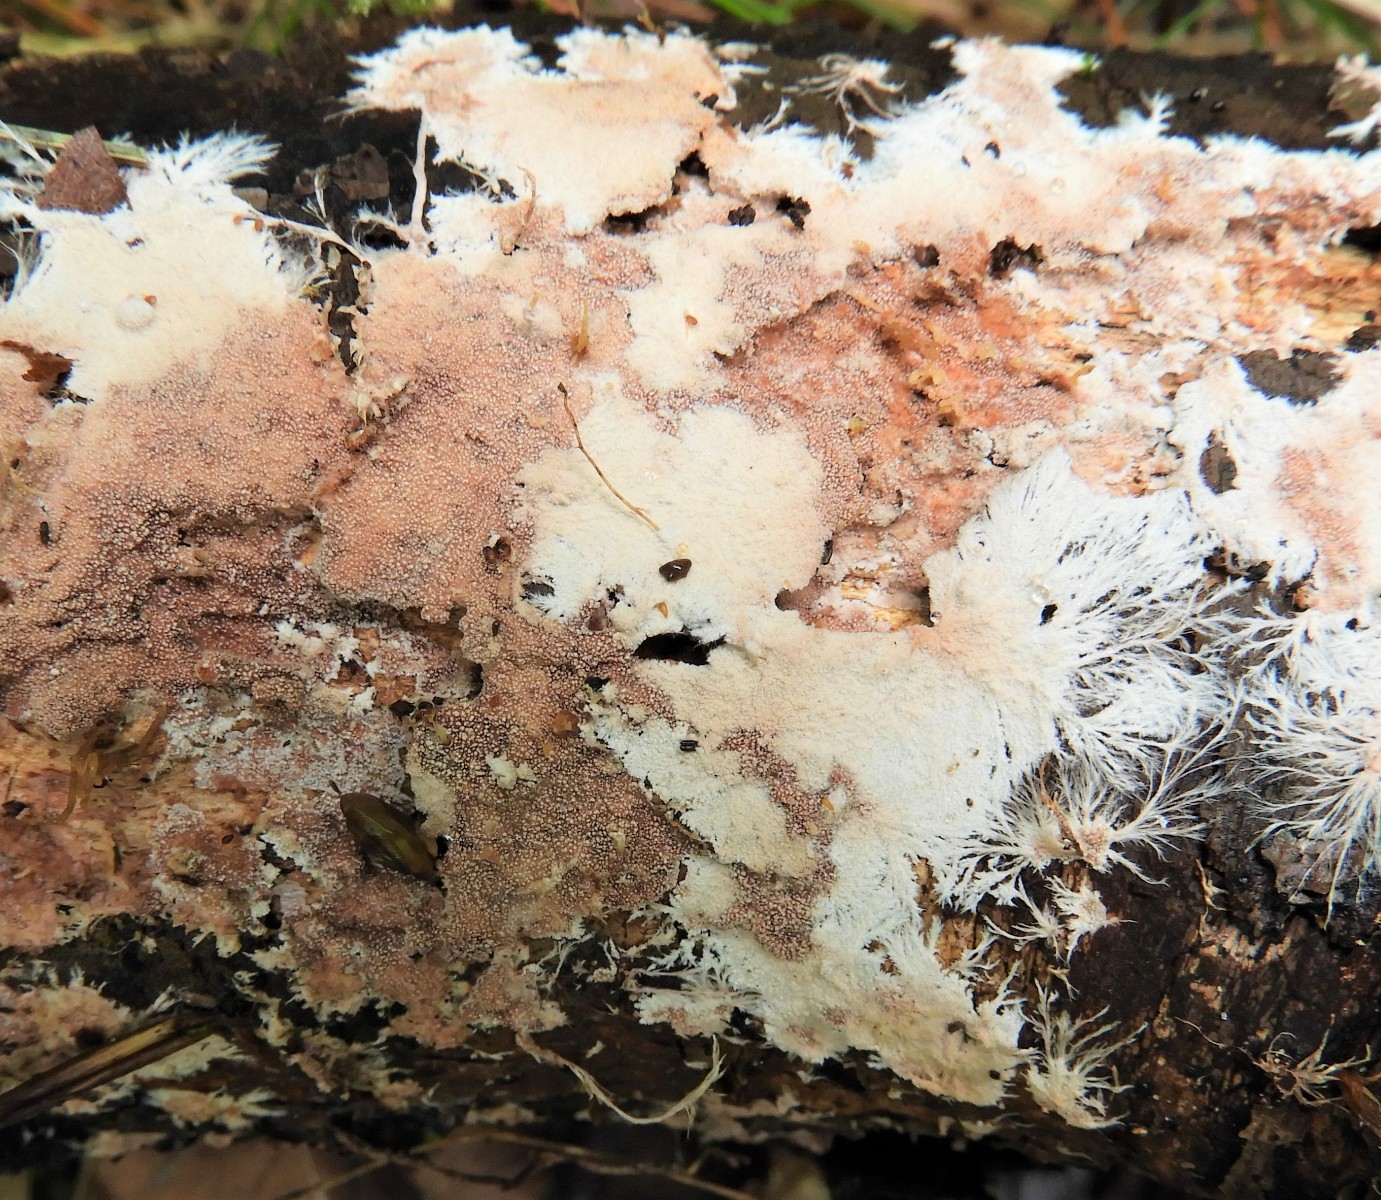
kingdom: Fungi
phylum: Basidiomycota
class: Agaricomycetes
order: Polyporales
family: Steccherinaceae
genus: Steccherinum
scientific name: Steccherinum fimbriatum
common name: trådet skønpig
